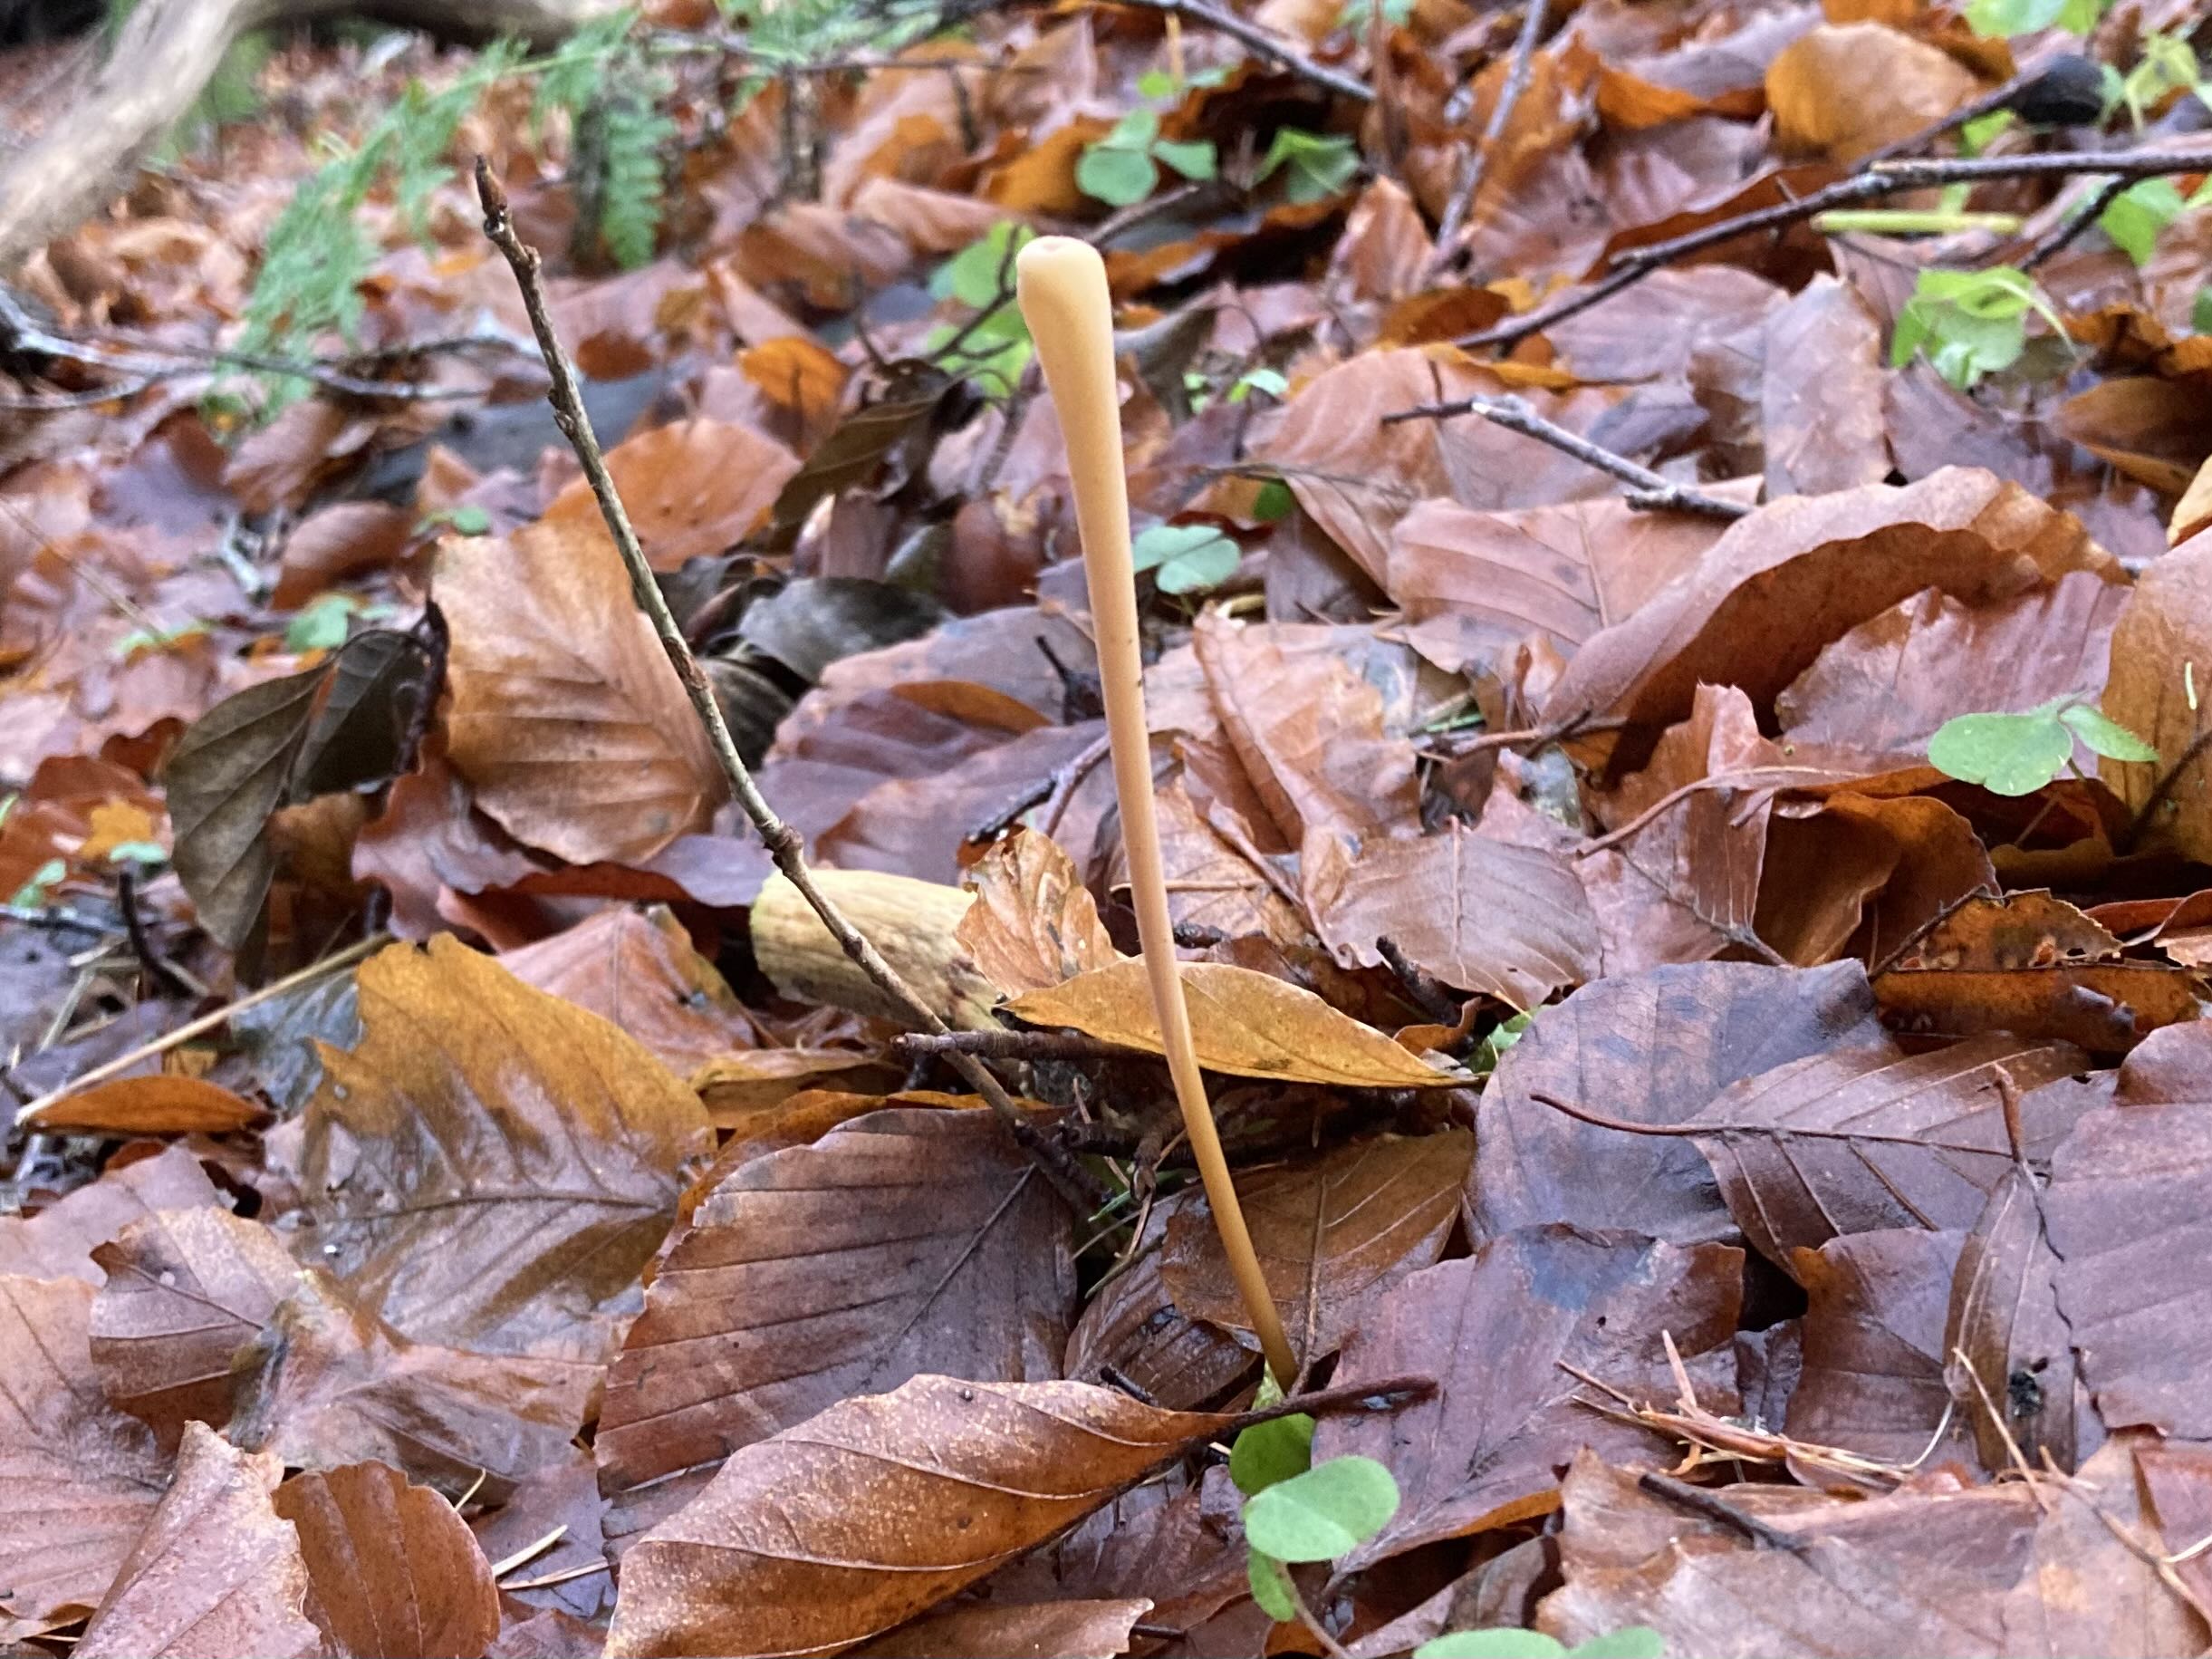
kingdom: Fungi
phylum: Basidiomycota
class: Agaricomycetes
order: Agaricales
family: Typhulaceae
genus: Typhula
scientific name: Typhula fistulosa
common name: pibet rørkølle
